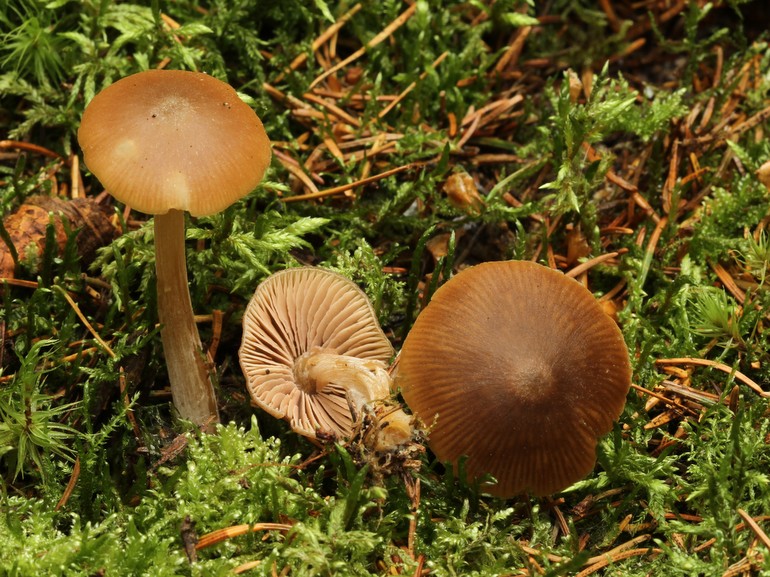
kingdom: Fungi
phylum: Basidiomycota
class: Agaricomycetes
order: Agaricales
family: Entolomataceae
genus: Entoloma
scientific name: Entoloma pallescens
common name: tidlig rødblad
